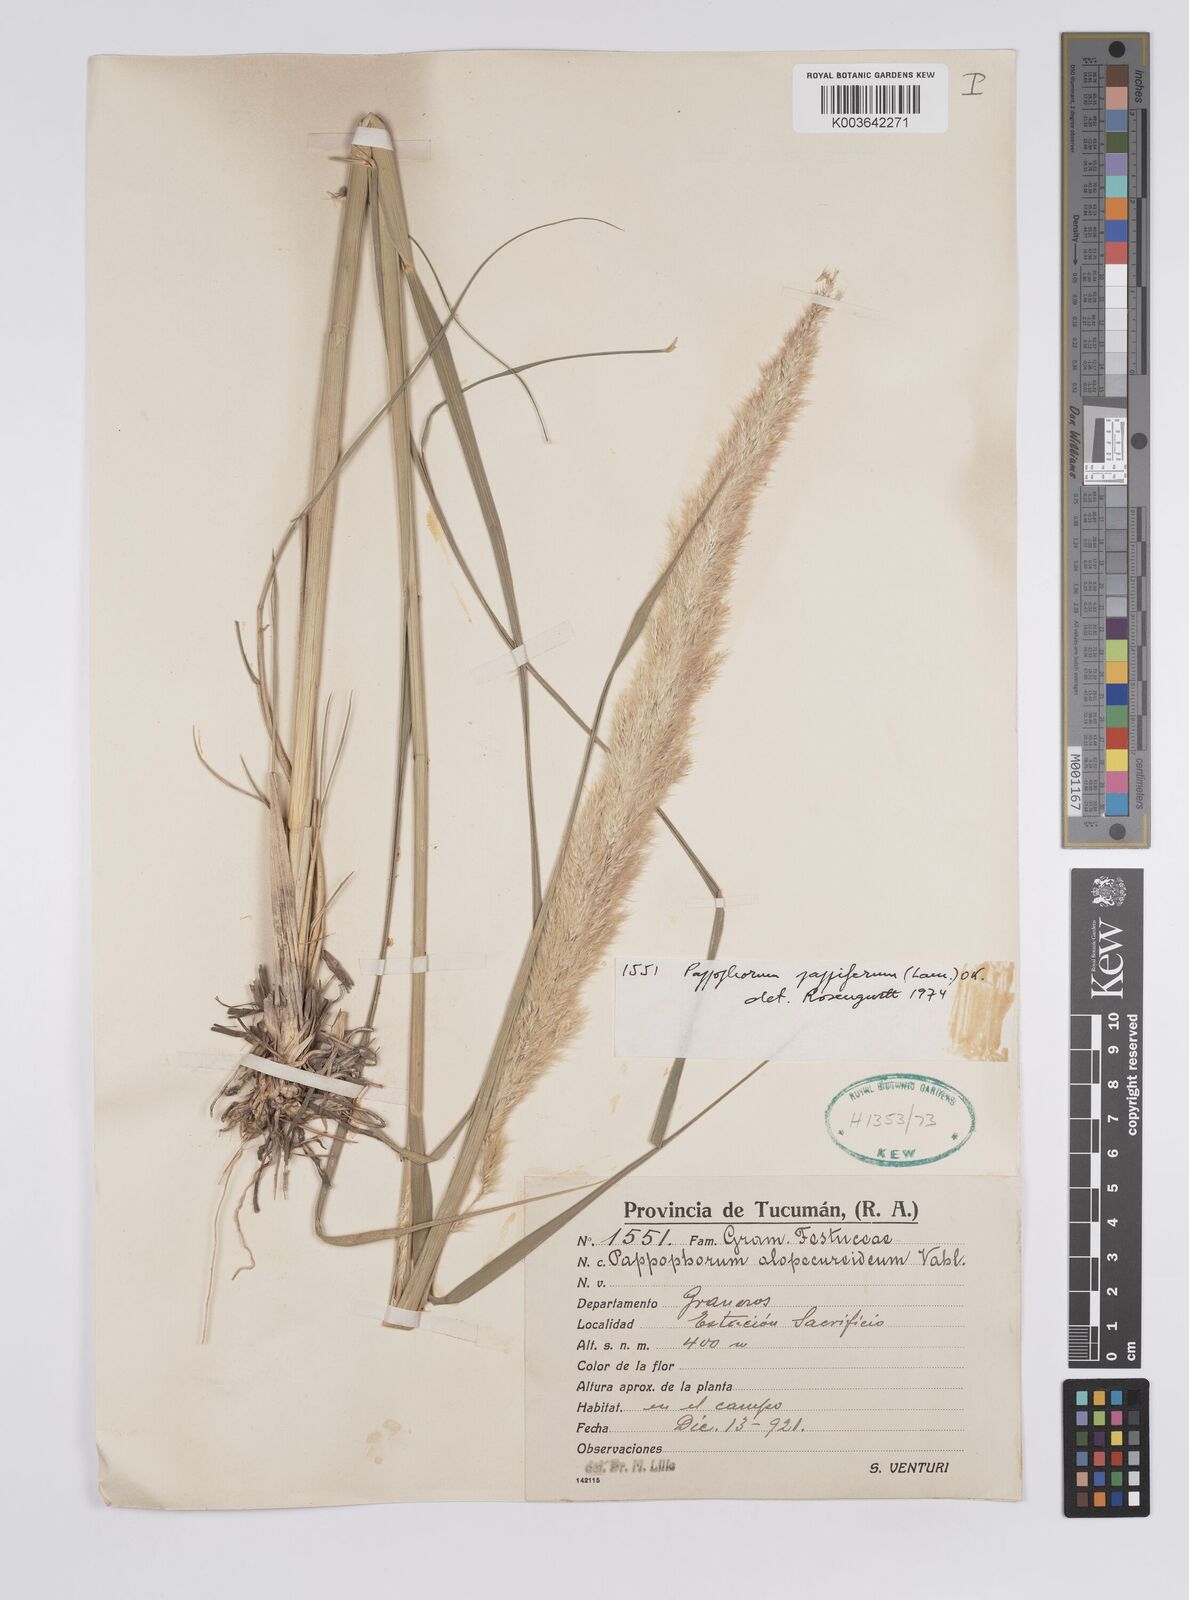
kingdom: Plantae
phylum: Tracheophyta
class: Liliopsida
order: Poales
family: Poaceae
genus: Pappophorum
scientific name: Pappophorum pappiferum
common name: Crabgrass
